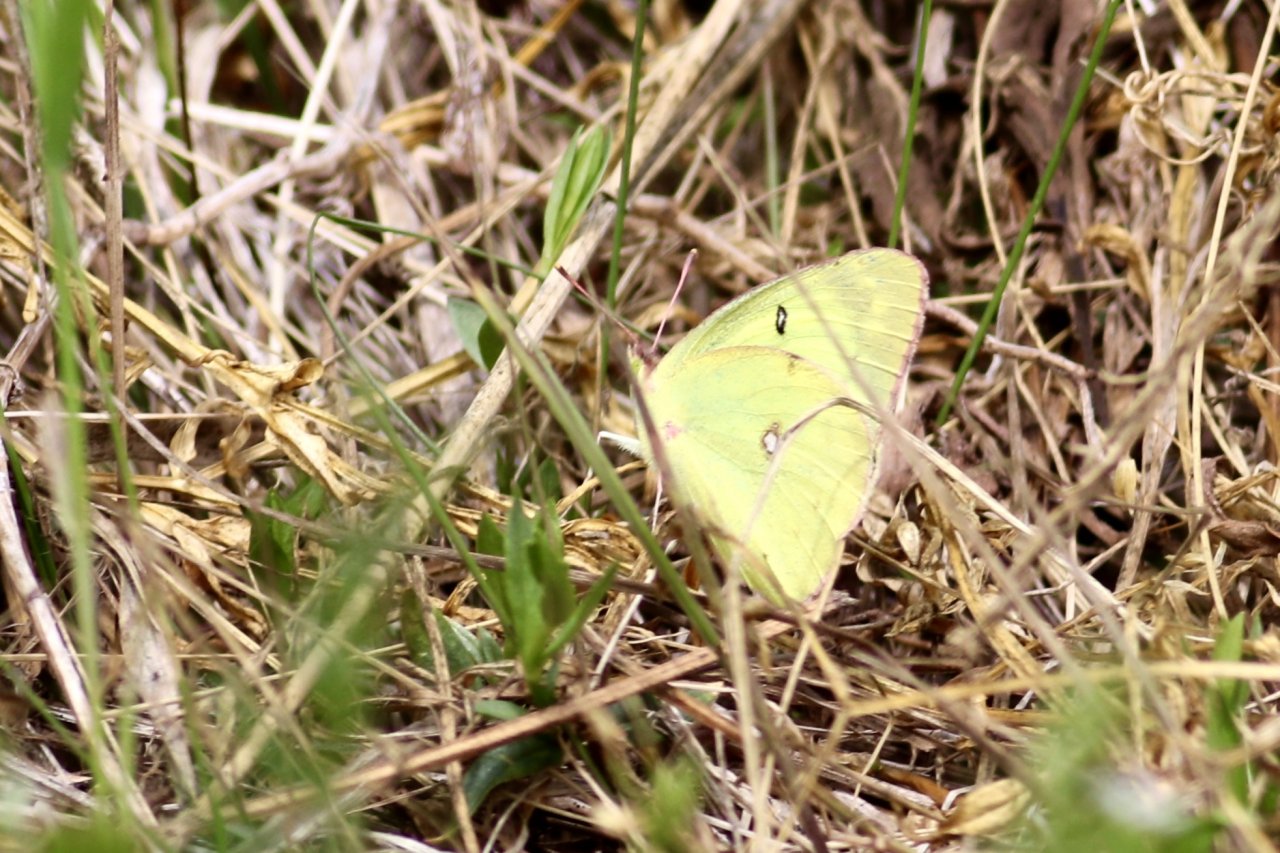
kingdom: Animalia
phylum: Arthropoda
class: Insecta
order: Lepidoptera
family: Pieridae
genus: Colias
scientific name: Colias philodice
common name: Clouded Sulphur
